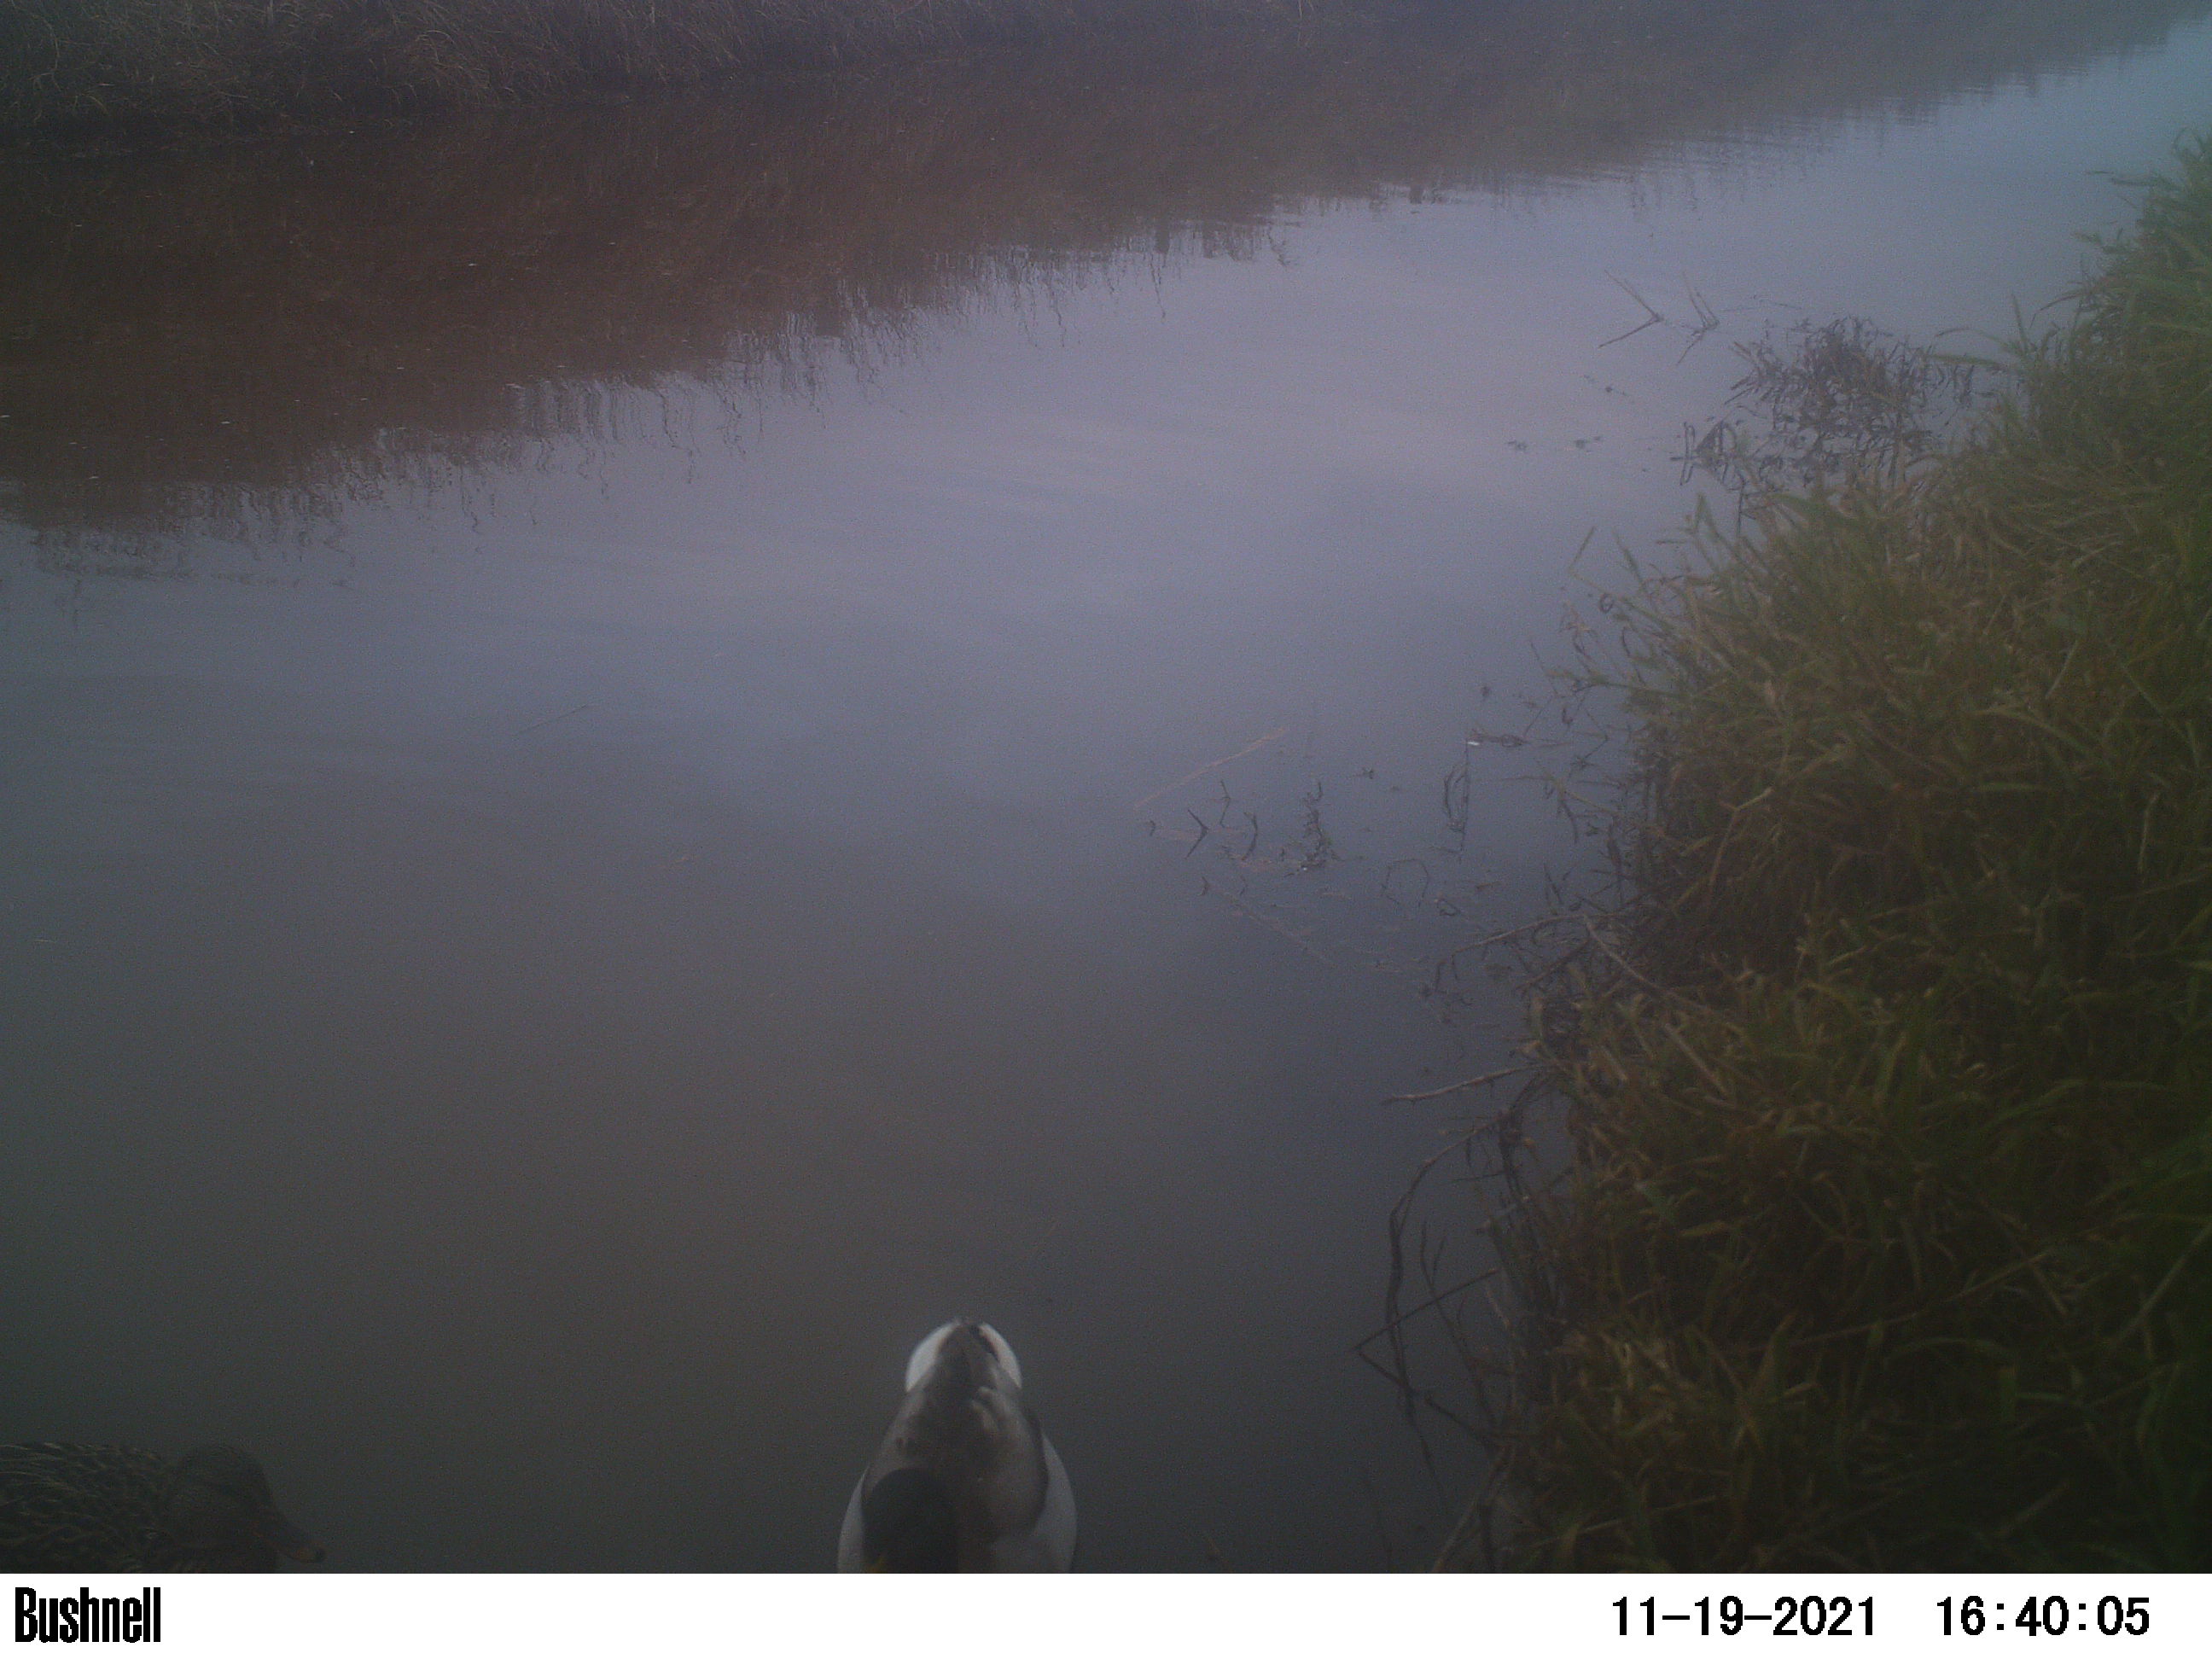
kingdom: Animalia
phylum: Chordata
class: Aves
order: Anseriformes
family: Anatidae
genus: Anas
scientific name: Anas
